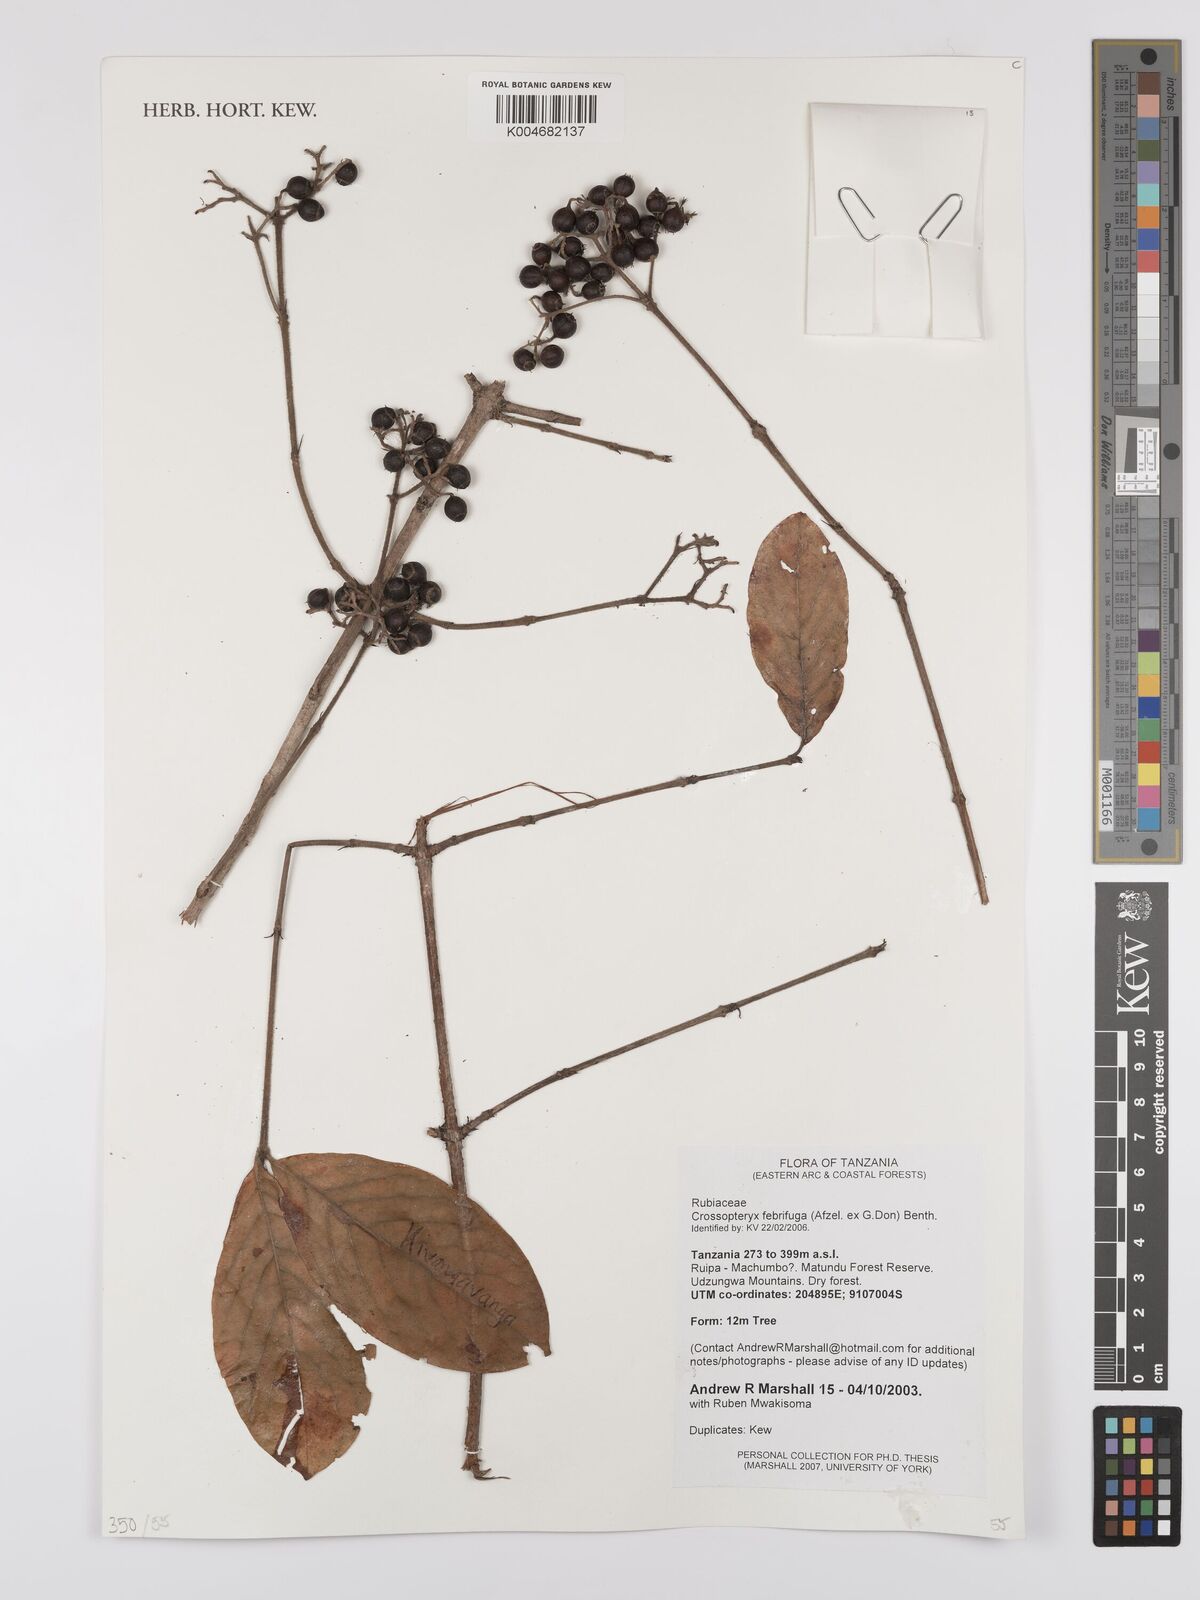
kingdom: Plantae
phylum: Tracheophyta
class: Magnoliopsida
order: Gentianales
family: Rubiaceae
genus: Crossopteryx
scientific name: Crossopteryx febrifuga
